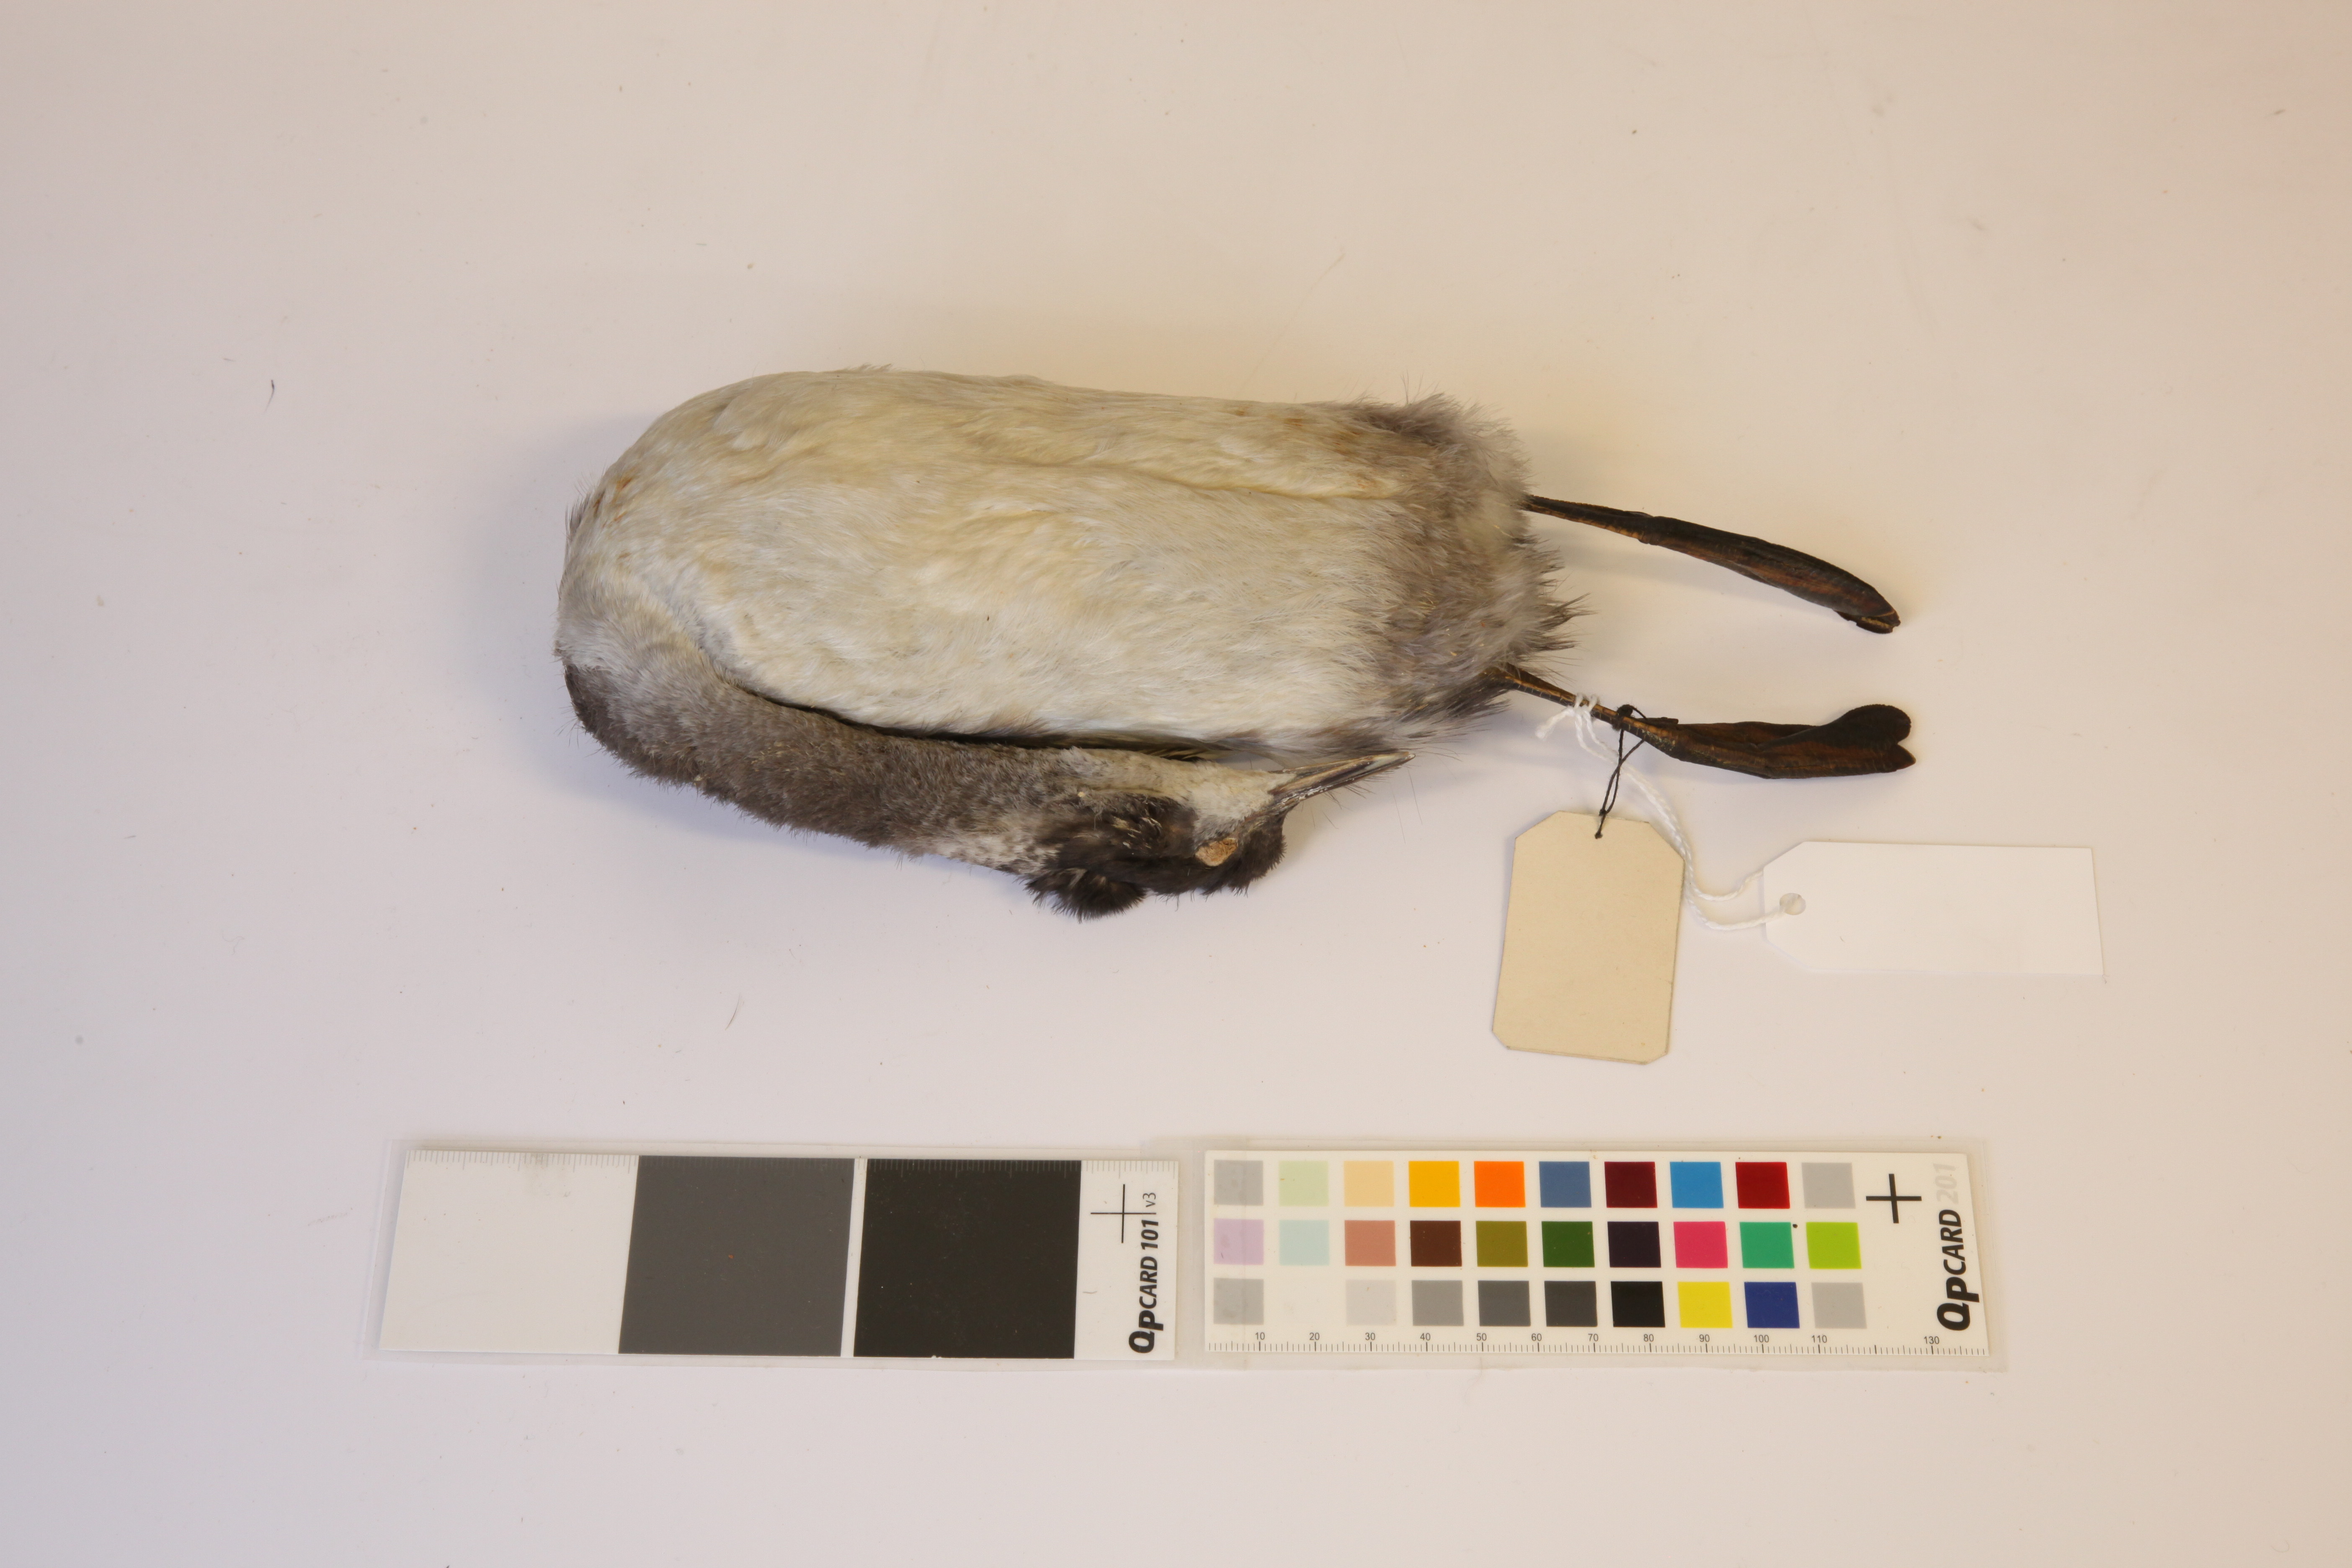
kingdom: Animalia
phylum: Chordata
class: Aves
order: Podicipediformes
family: Podicipedidae
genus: Podiceps
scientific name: Podiceps nigricollis
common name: Black-necked grebe
